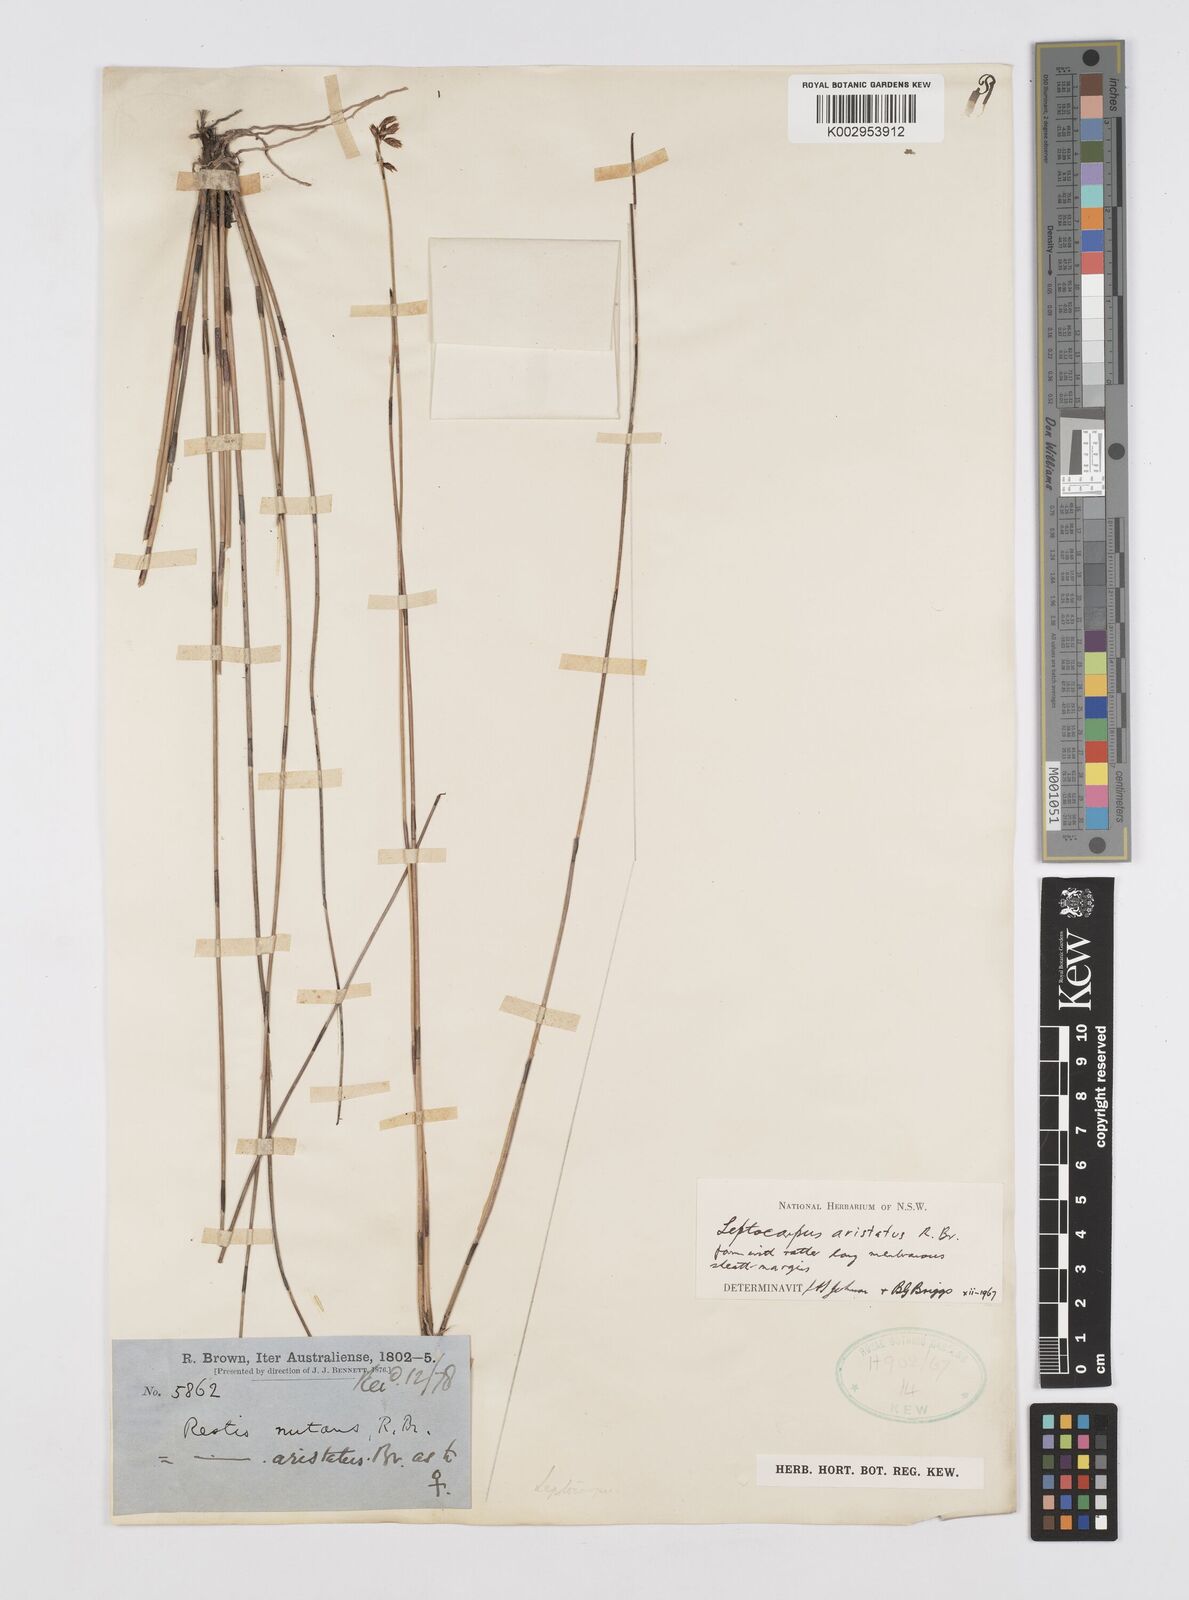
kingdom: Plantae
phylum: Tracheophyta
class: Liliopsida
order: Poales
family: Restionaceae
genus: Chaetanthus
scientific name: Chaetanthus aristatus
